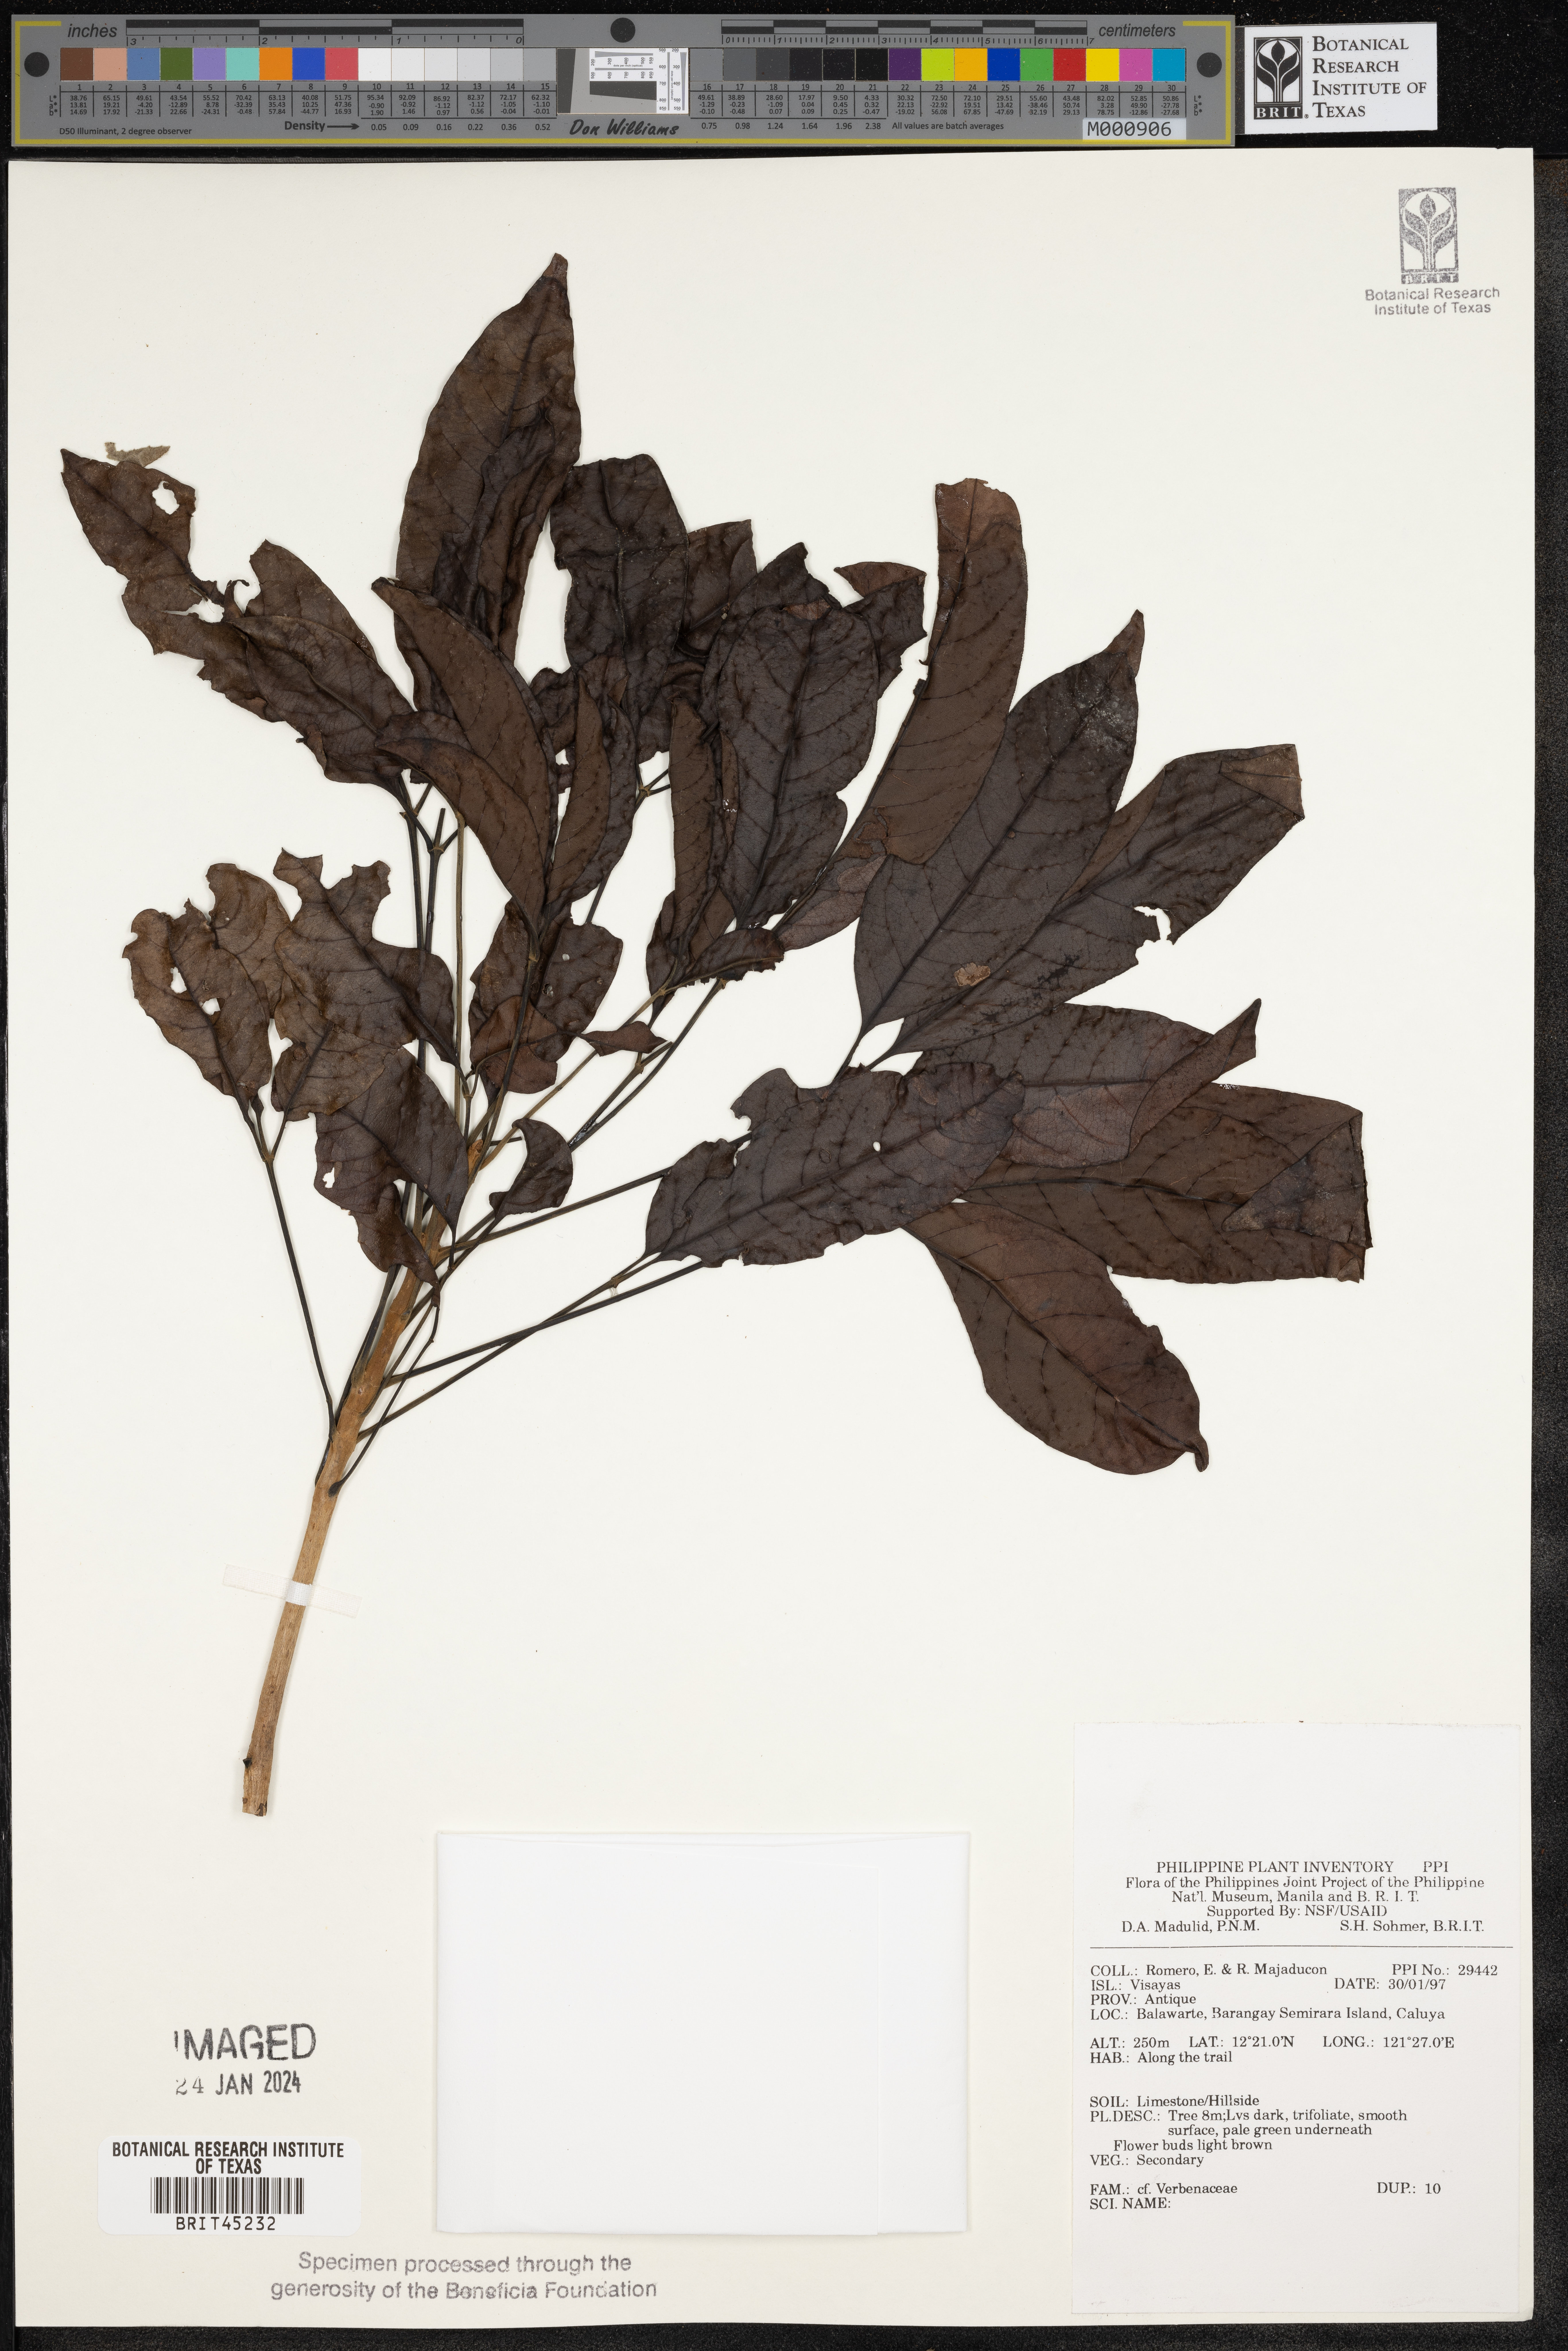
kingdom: Plantae
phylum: Tracheophyta
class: Magnoliopsida
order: Lamiales
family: Verbenaceae
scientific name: Verbenaceae
